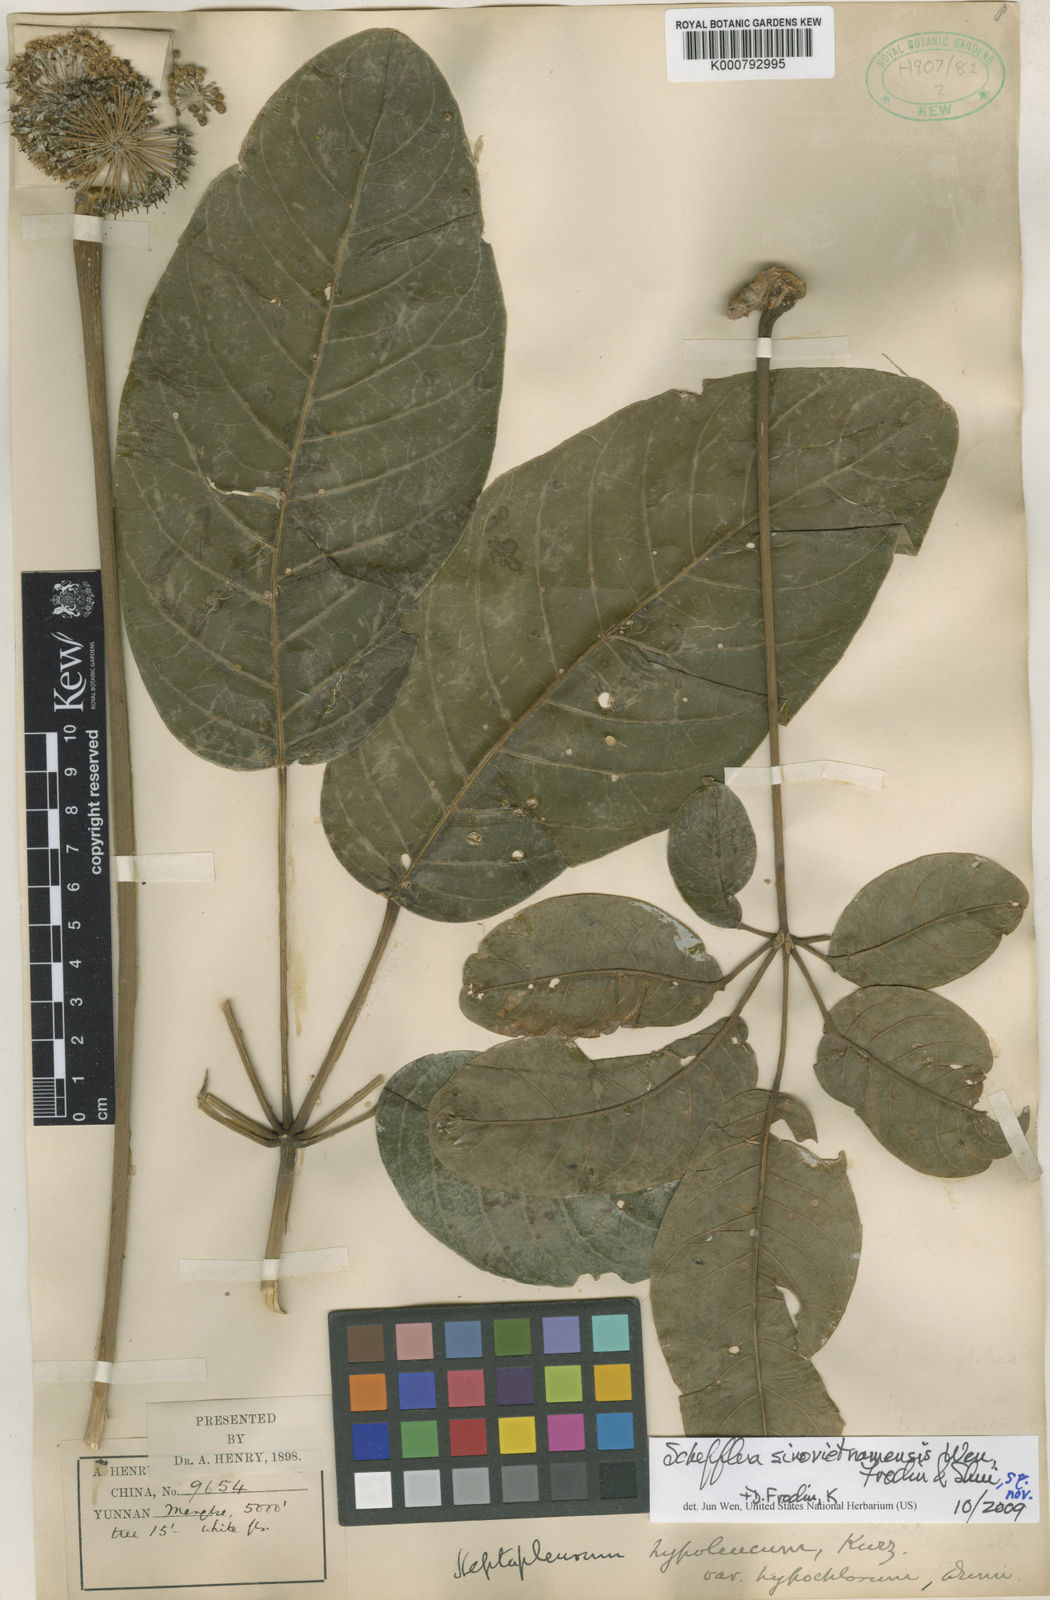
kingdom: Plantae
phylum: Tracheophyta
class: Magnoliopsida
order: Apiales
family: Araliaceae
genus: Schefflera
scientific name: Schefflera
